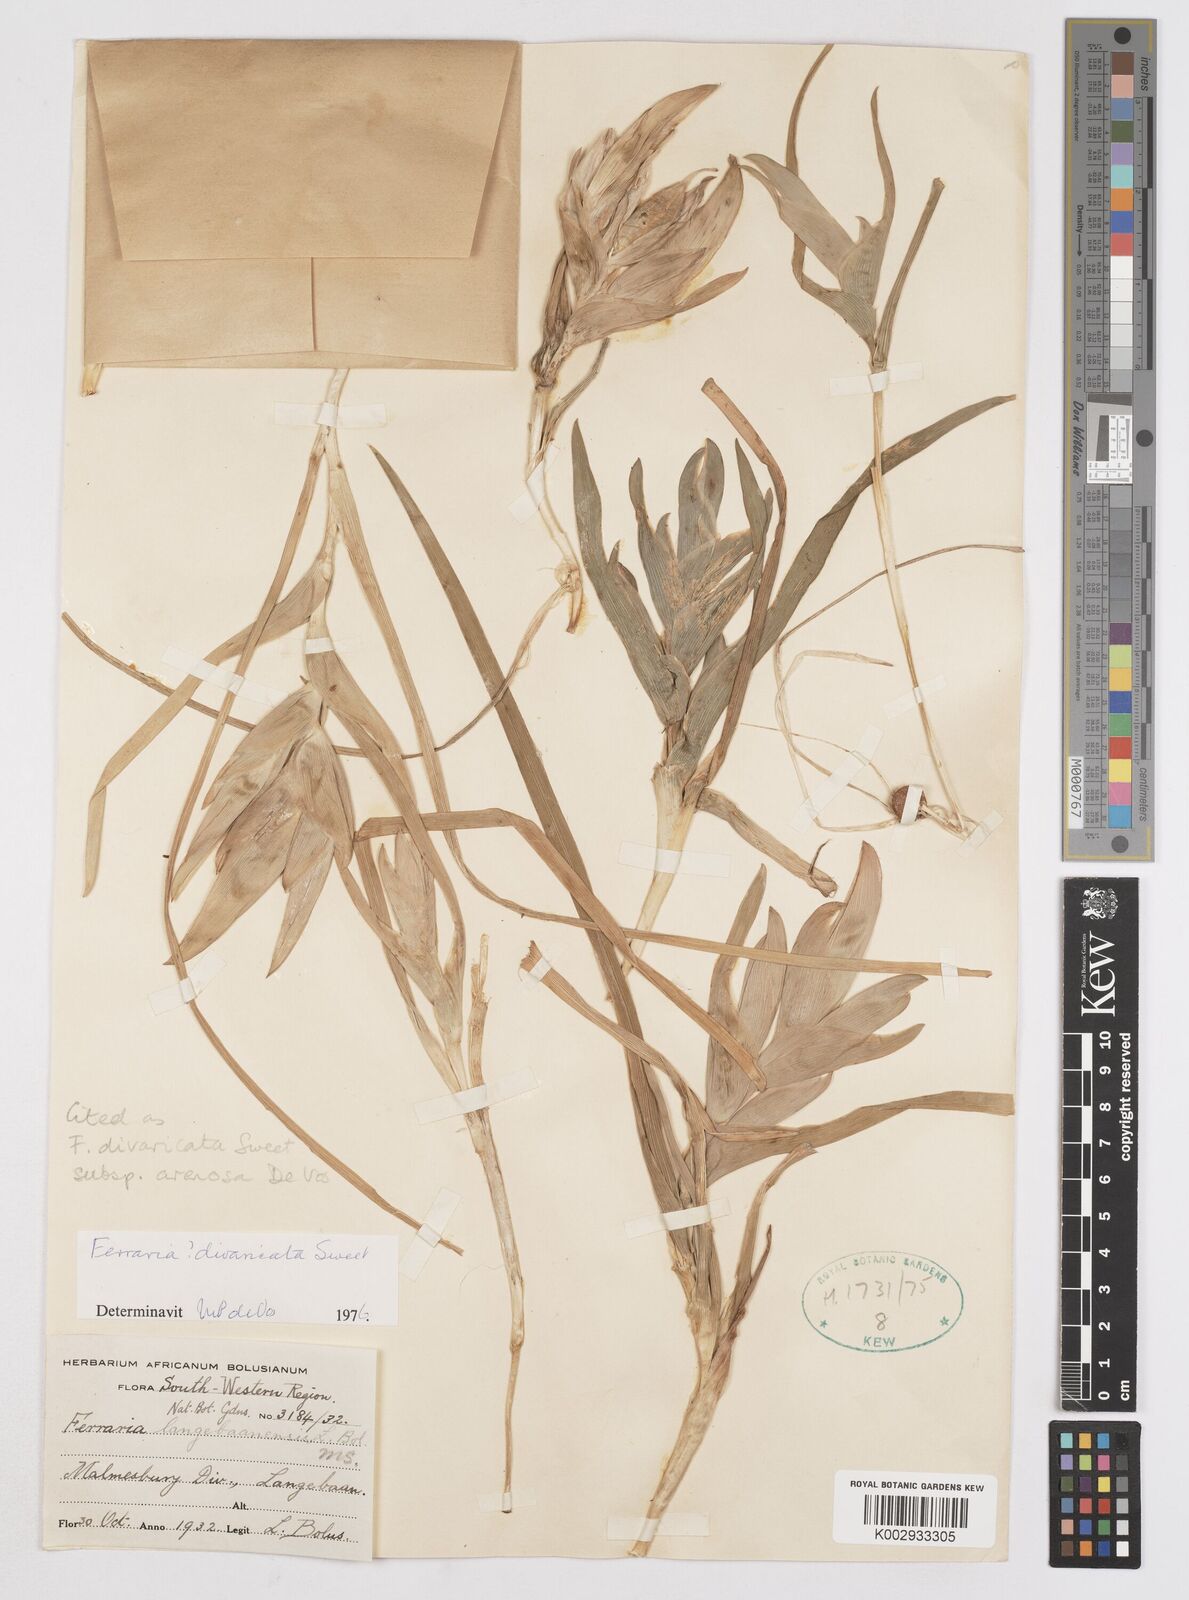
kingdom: Plantae
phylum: Tracheophyta
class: Liliopsida
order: Asparagales
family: Iridaceae
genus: Ferraria
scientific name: Ferraria divaricata
